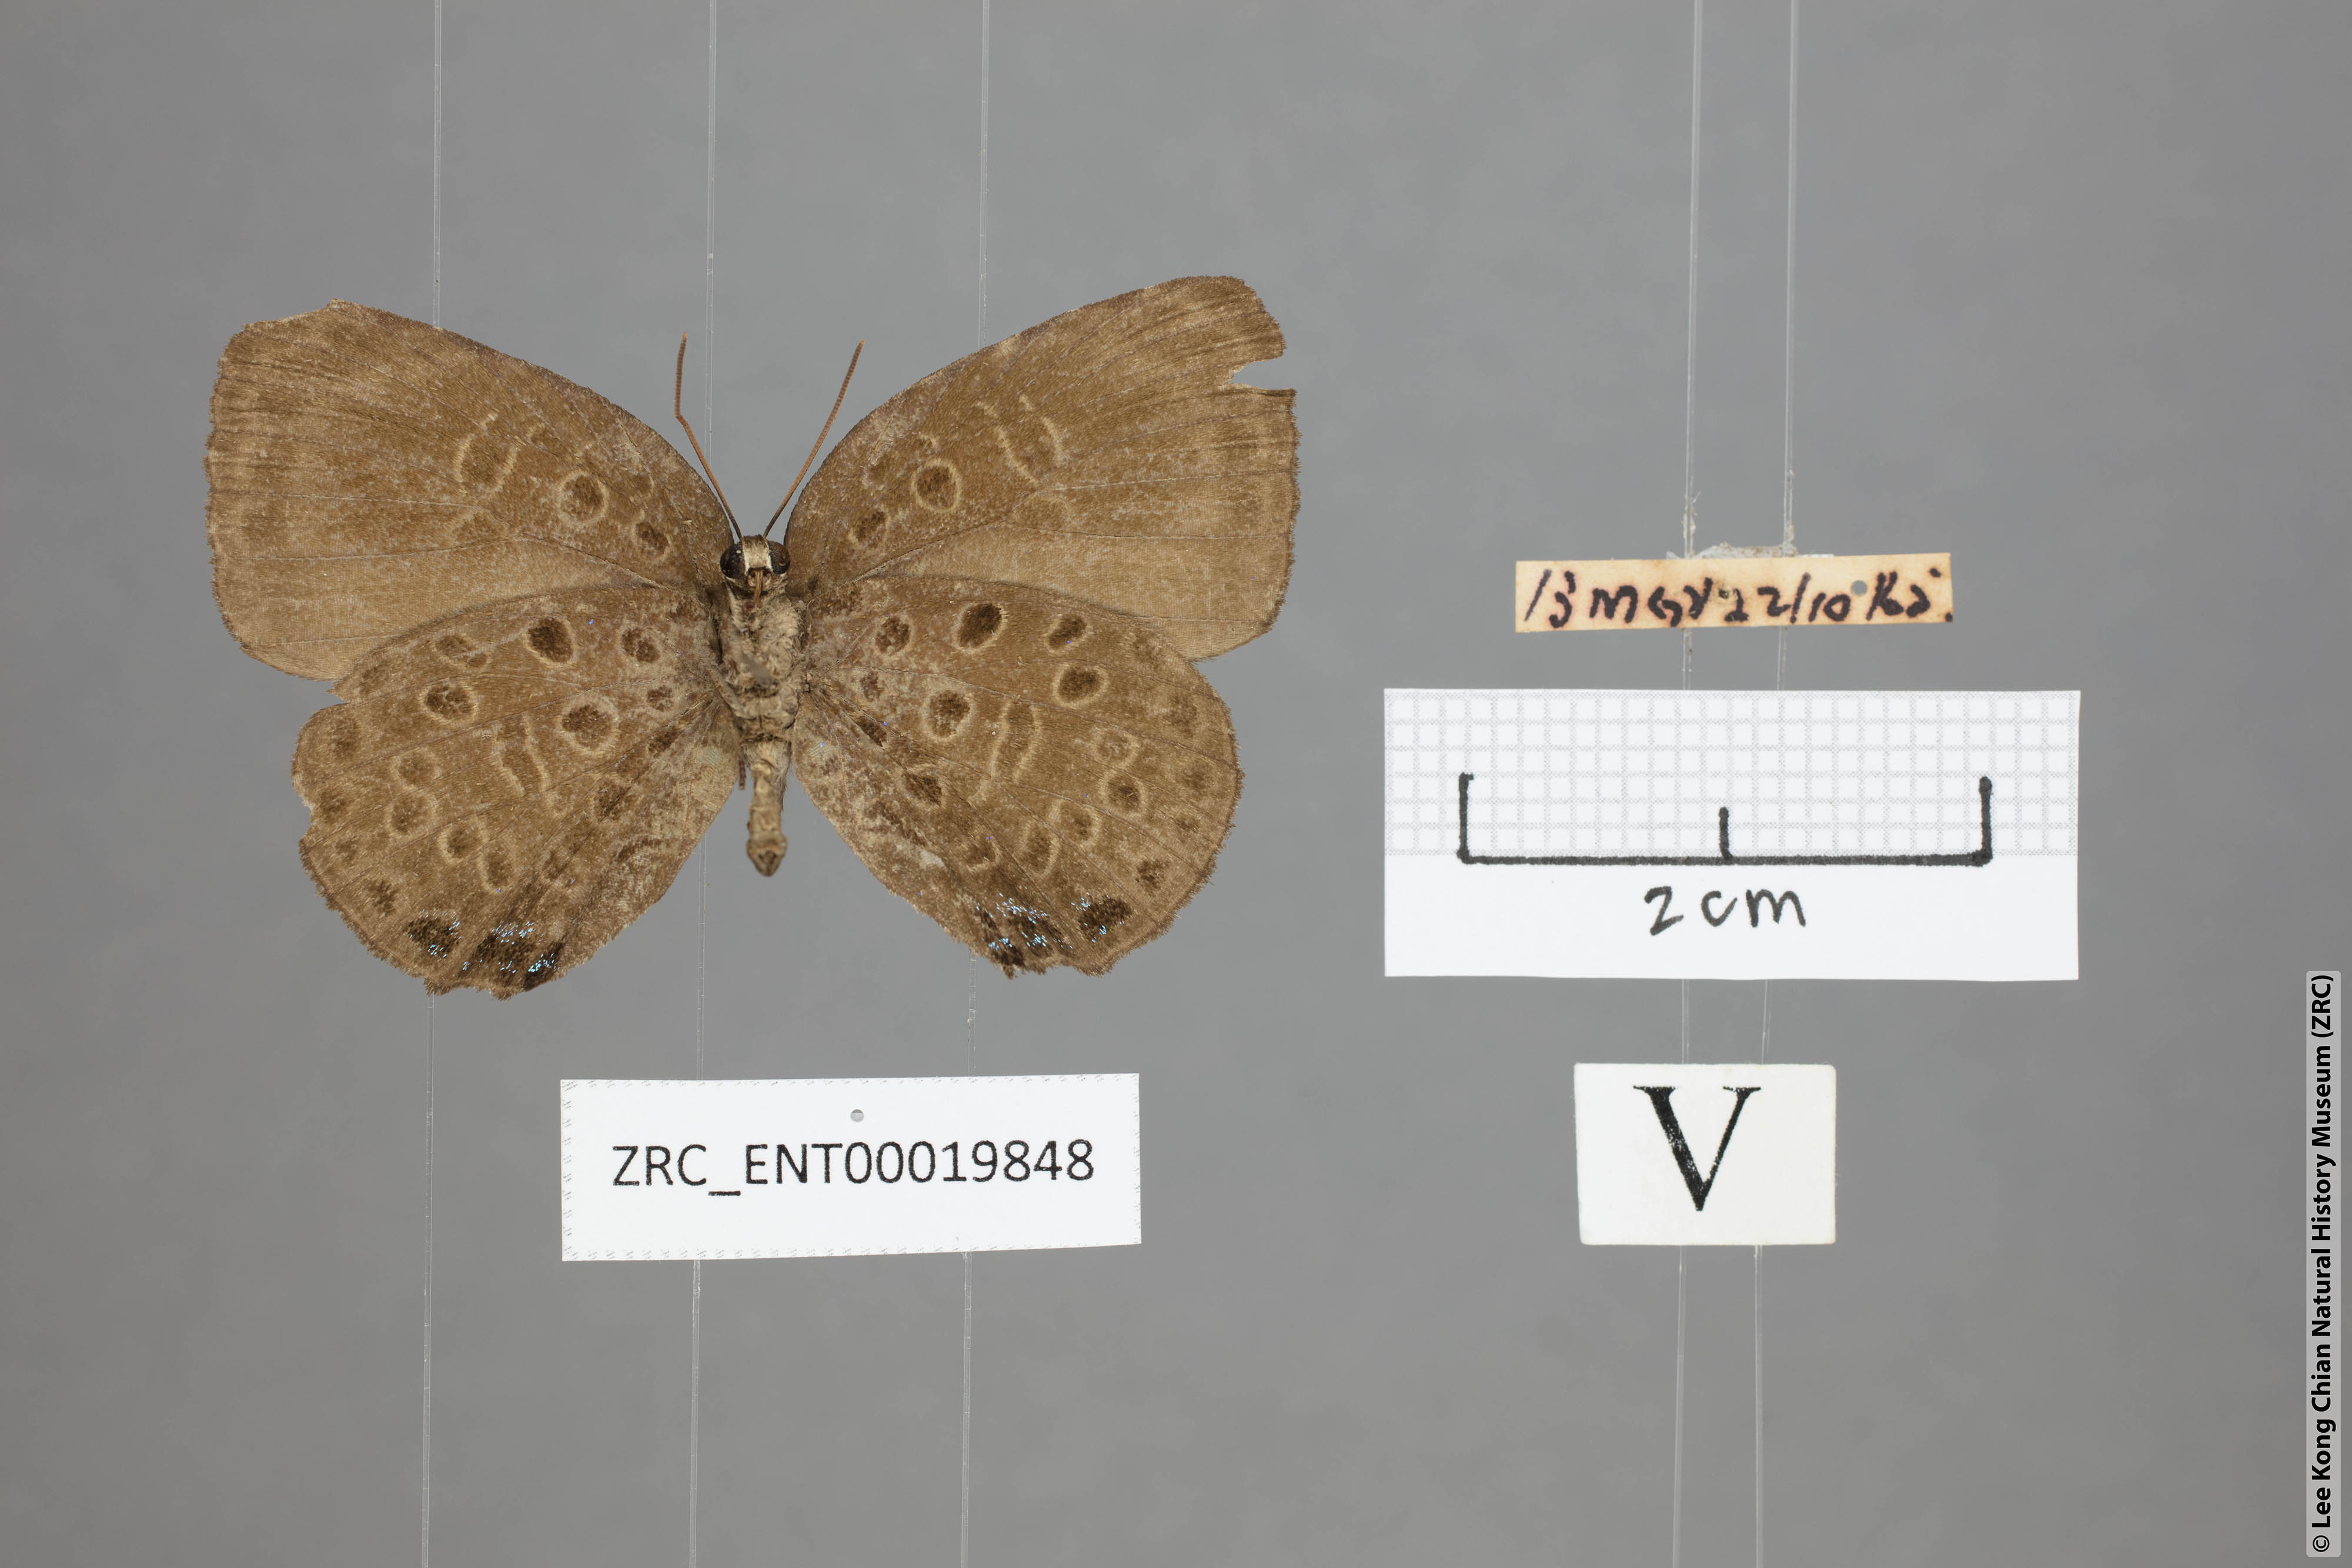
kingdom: Animalia
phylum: Arthropoda
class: Insecta
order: Lepidoptera
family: Lycaenidae
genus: Arhopala
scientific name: Arhopala similis
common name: Druce's oakblue
